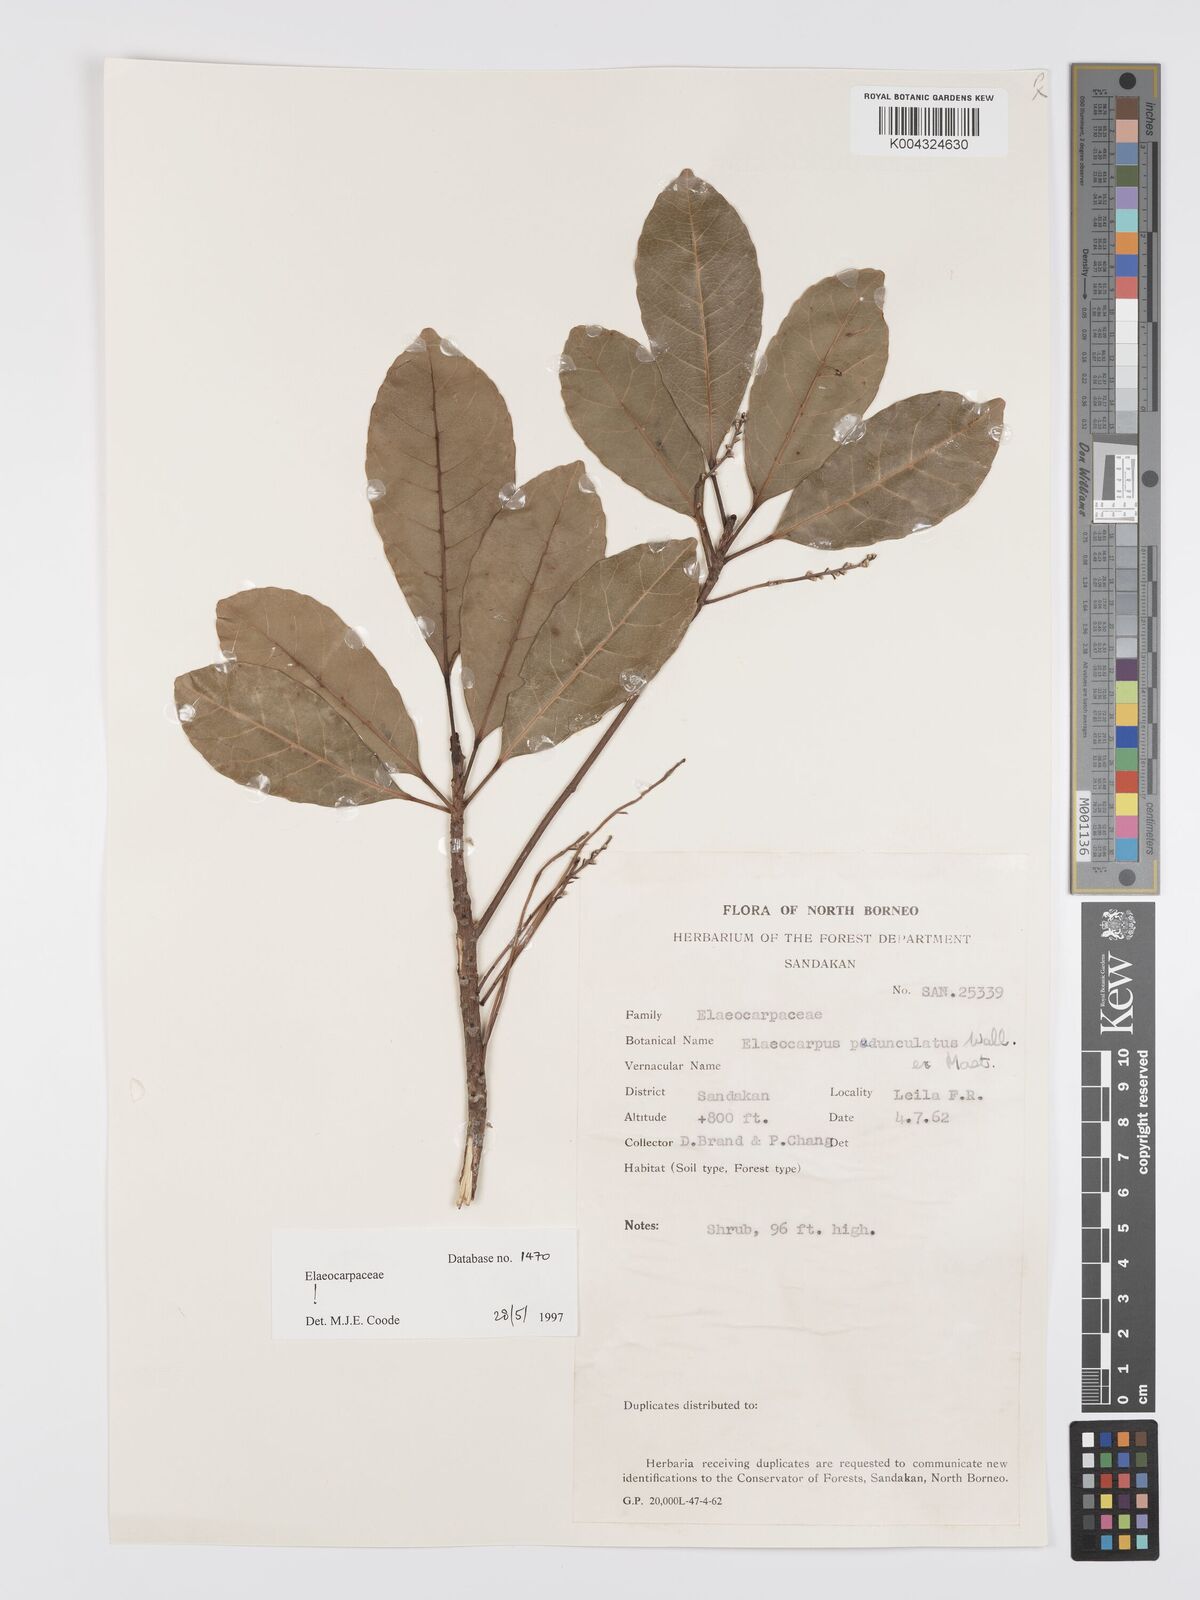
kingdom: Plantae
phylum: Tracheophyta
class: Magnoliopsida
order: Oxalidales
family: Elaeocarpaceae
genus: Elaeocarpus
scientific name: Elaeocarpus pedunculatus
